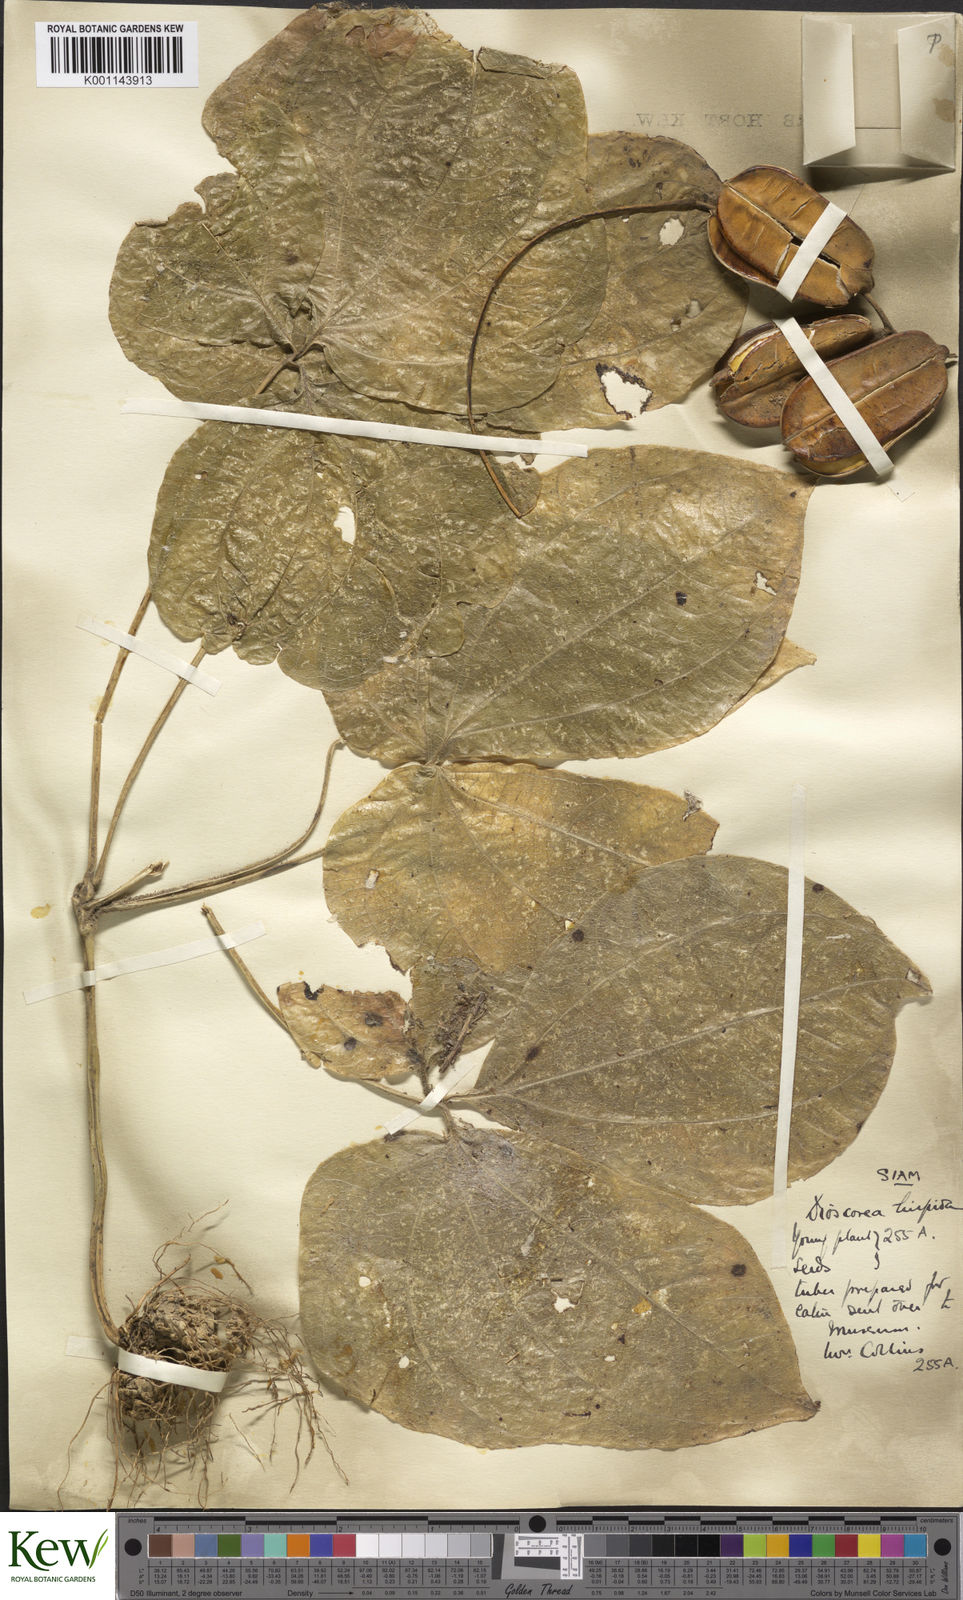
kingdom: Plantae
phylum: Tracheophyta
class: Liliopsida
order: Dioscoreales
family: Dioscoreaceae
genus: Dioscorea
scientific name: Dioscorea hispida
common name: Asiatic bitter yam
